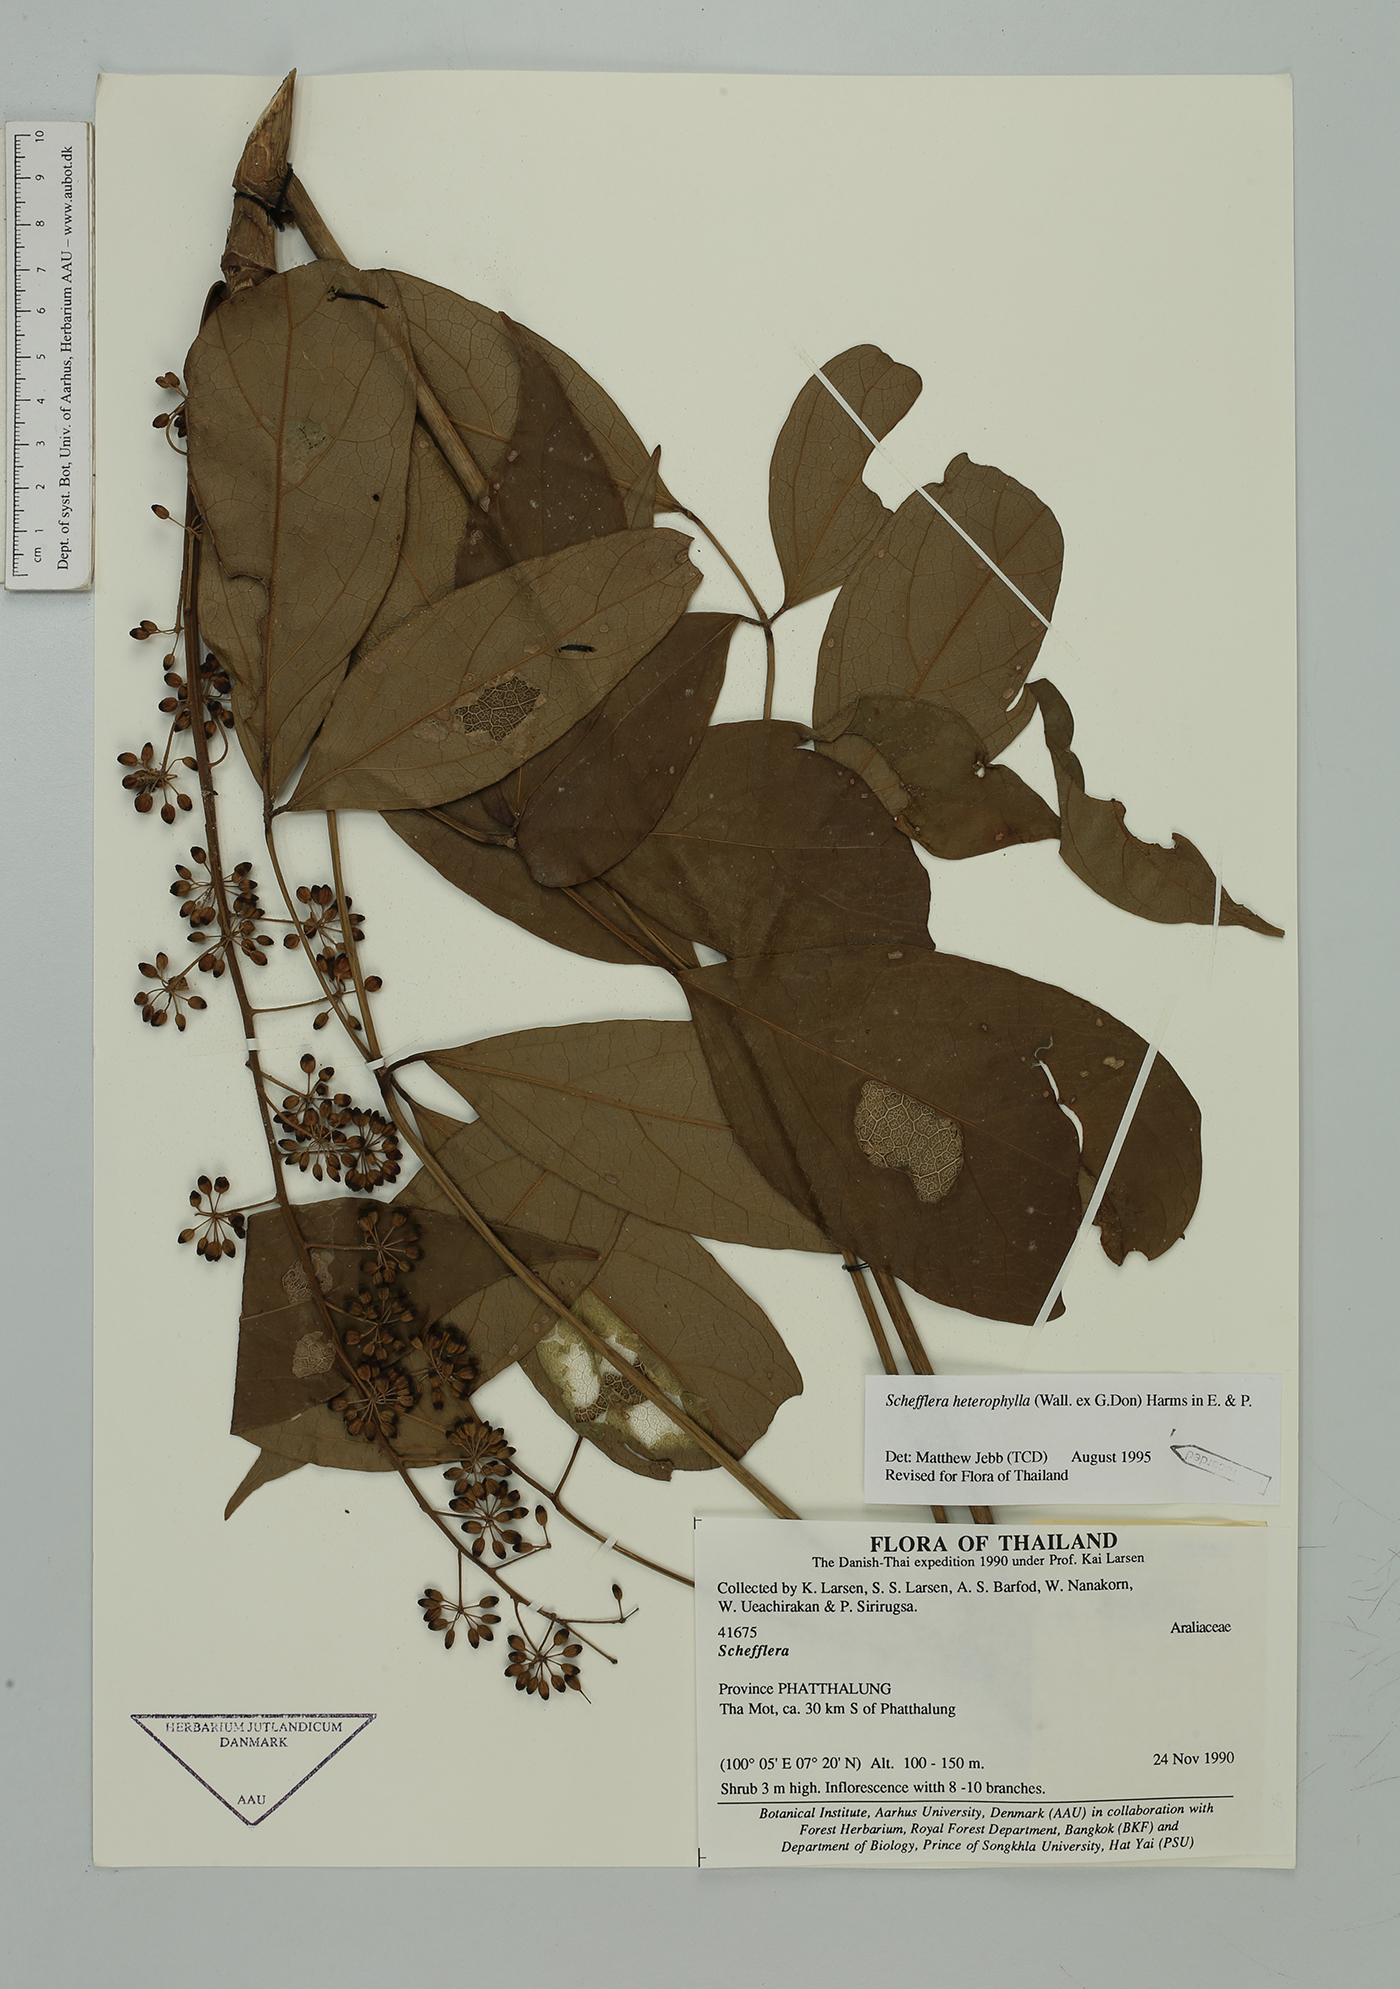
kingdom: Plantae
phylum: Tracheophyta
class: Magnoliopsida
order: Apiales
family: Araliaceae
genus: Heptapleurum
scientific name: Heptapleurum heterophyllum
